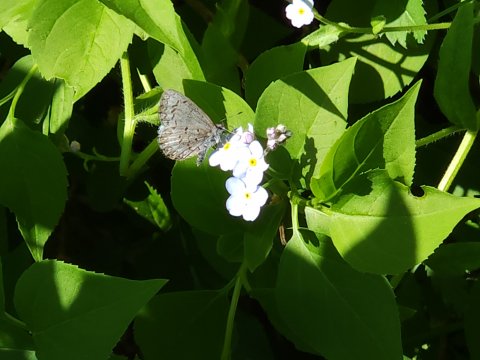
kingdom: Animalia
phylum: Arthropoda
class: Insecta
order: Lepidoptera
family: Lycaenidae
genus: Celastrina
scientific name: Celastrina lucia
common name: Northern Spring Azure
